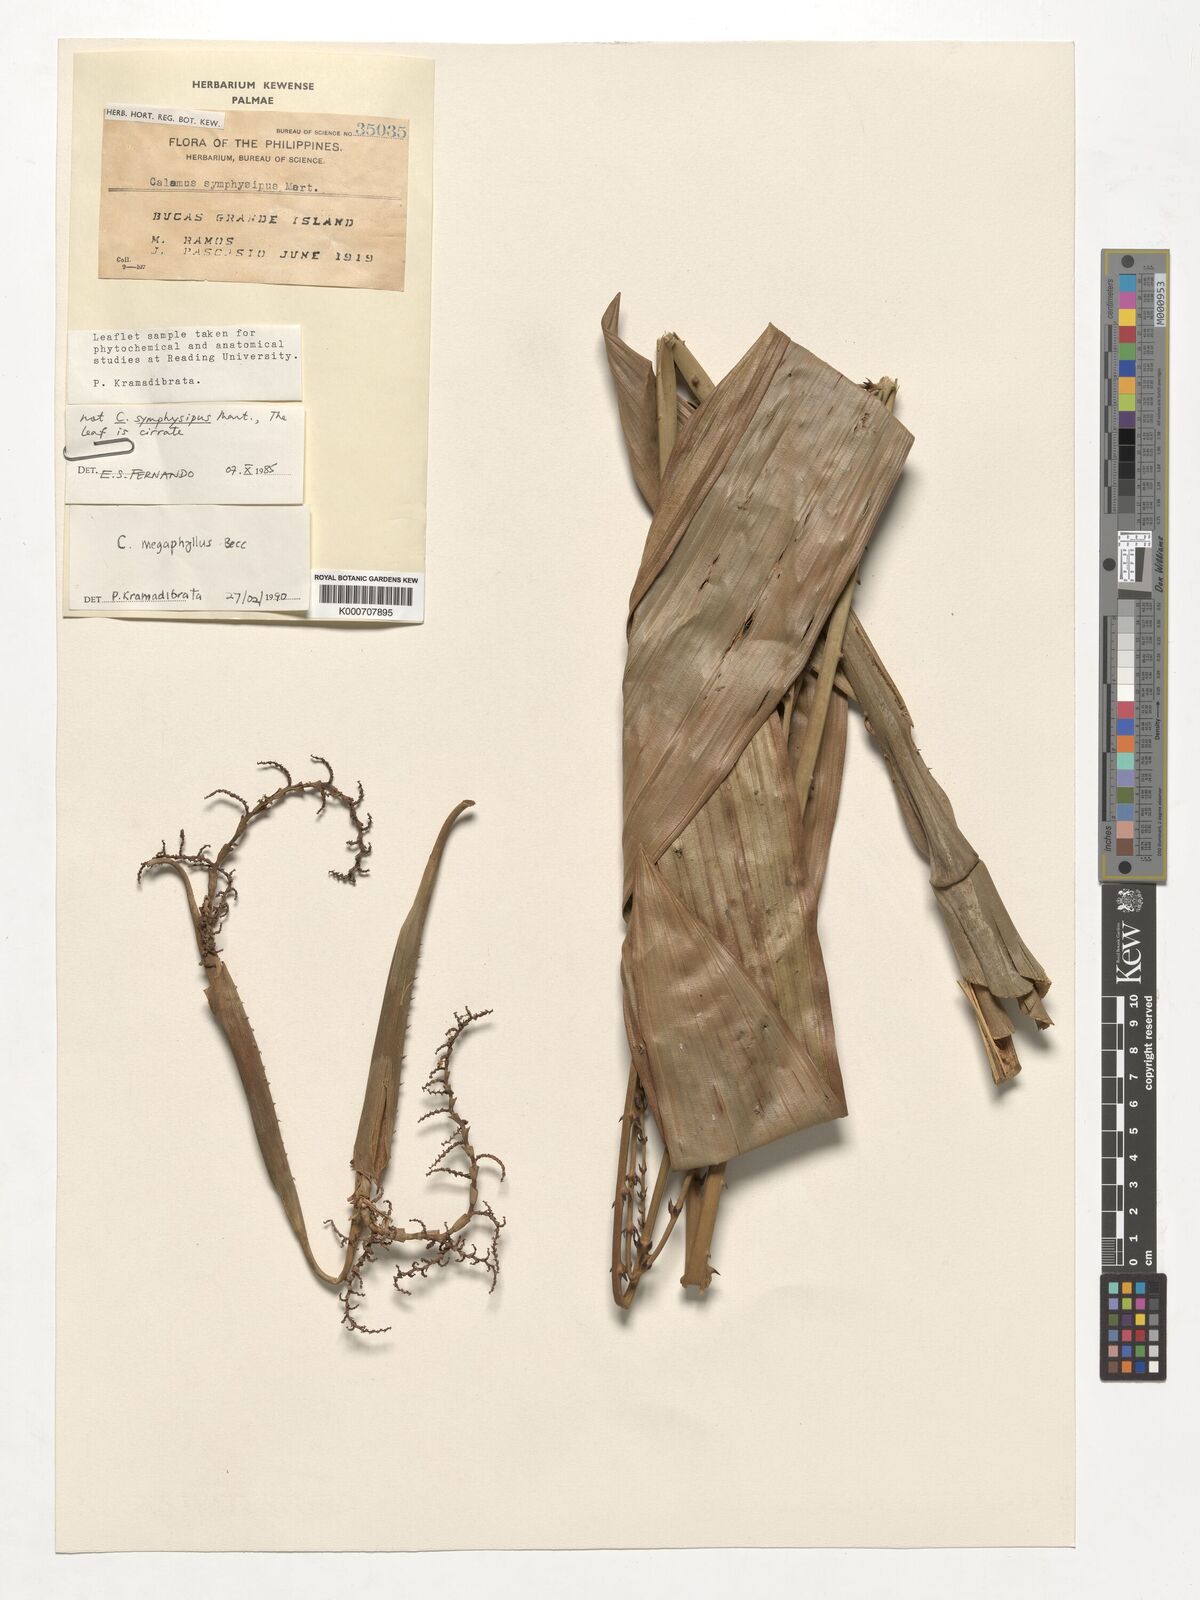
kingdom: Plantae
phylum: Tracheophyta
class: Liliopsida
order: Arecales
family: Arecaceae
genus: Calamus
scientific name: Calamus megaphyllus
